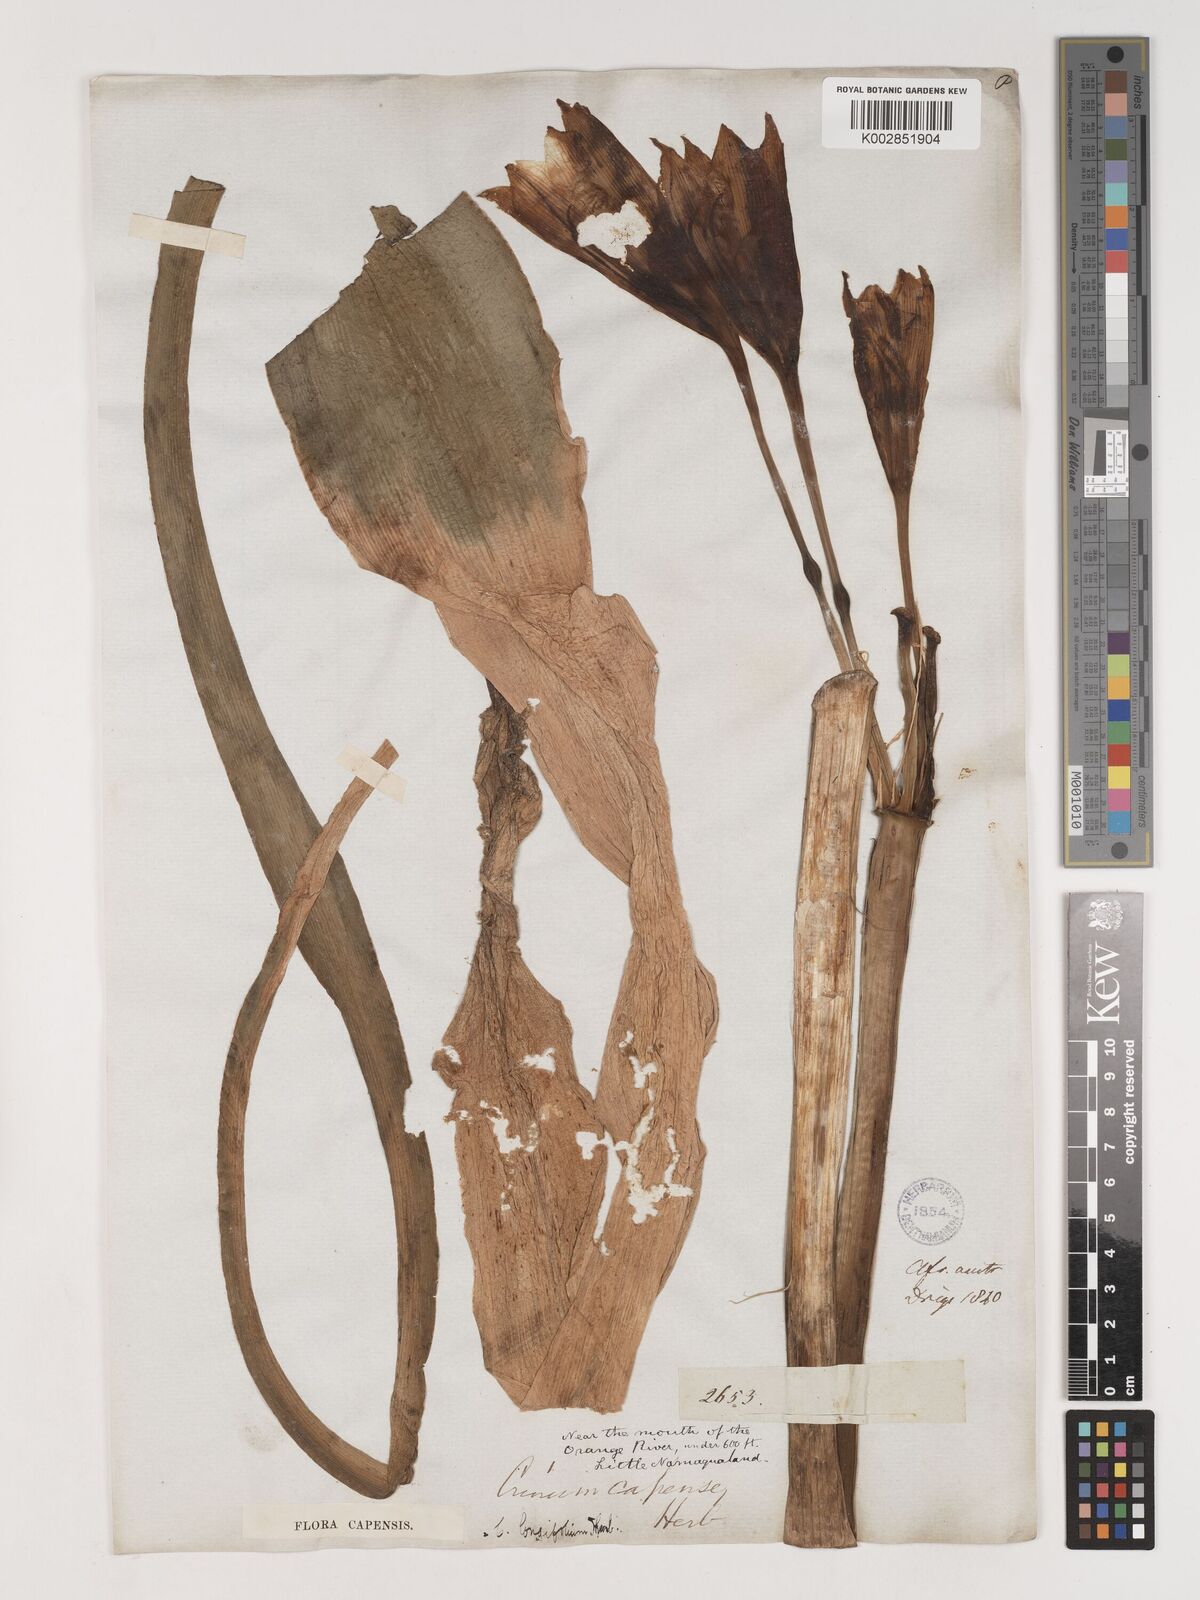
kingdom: Plantae
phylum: Tracheophyta
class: Liliopsida
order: Asparagales
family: Amaryllidaceae
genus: Crinum
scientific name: Crinum bulbispermum
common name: Hardy swamplily
